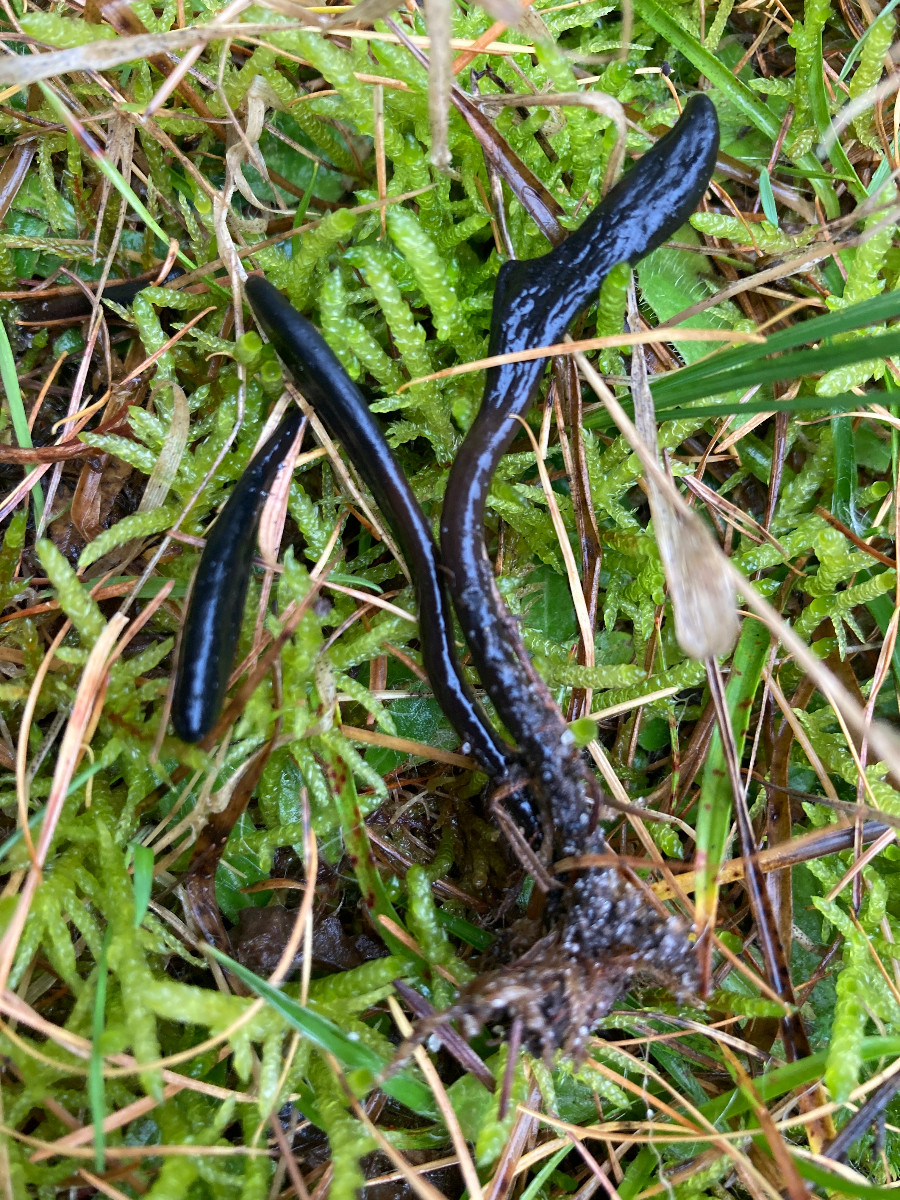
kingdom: Fungi
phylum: Ascomycota
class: Geoglossomycetes
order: Geoglossales
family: Geoglossaceae
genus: Glutinoglossum
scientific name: Glutinoglossum
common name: jordtunge
